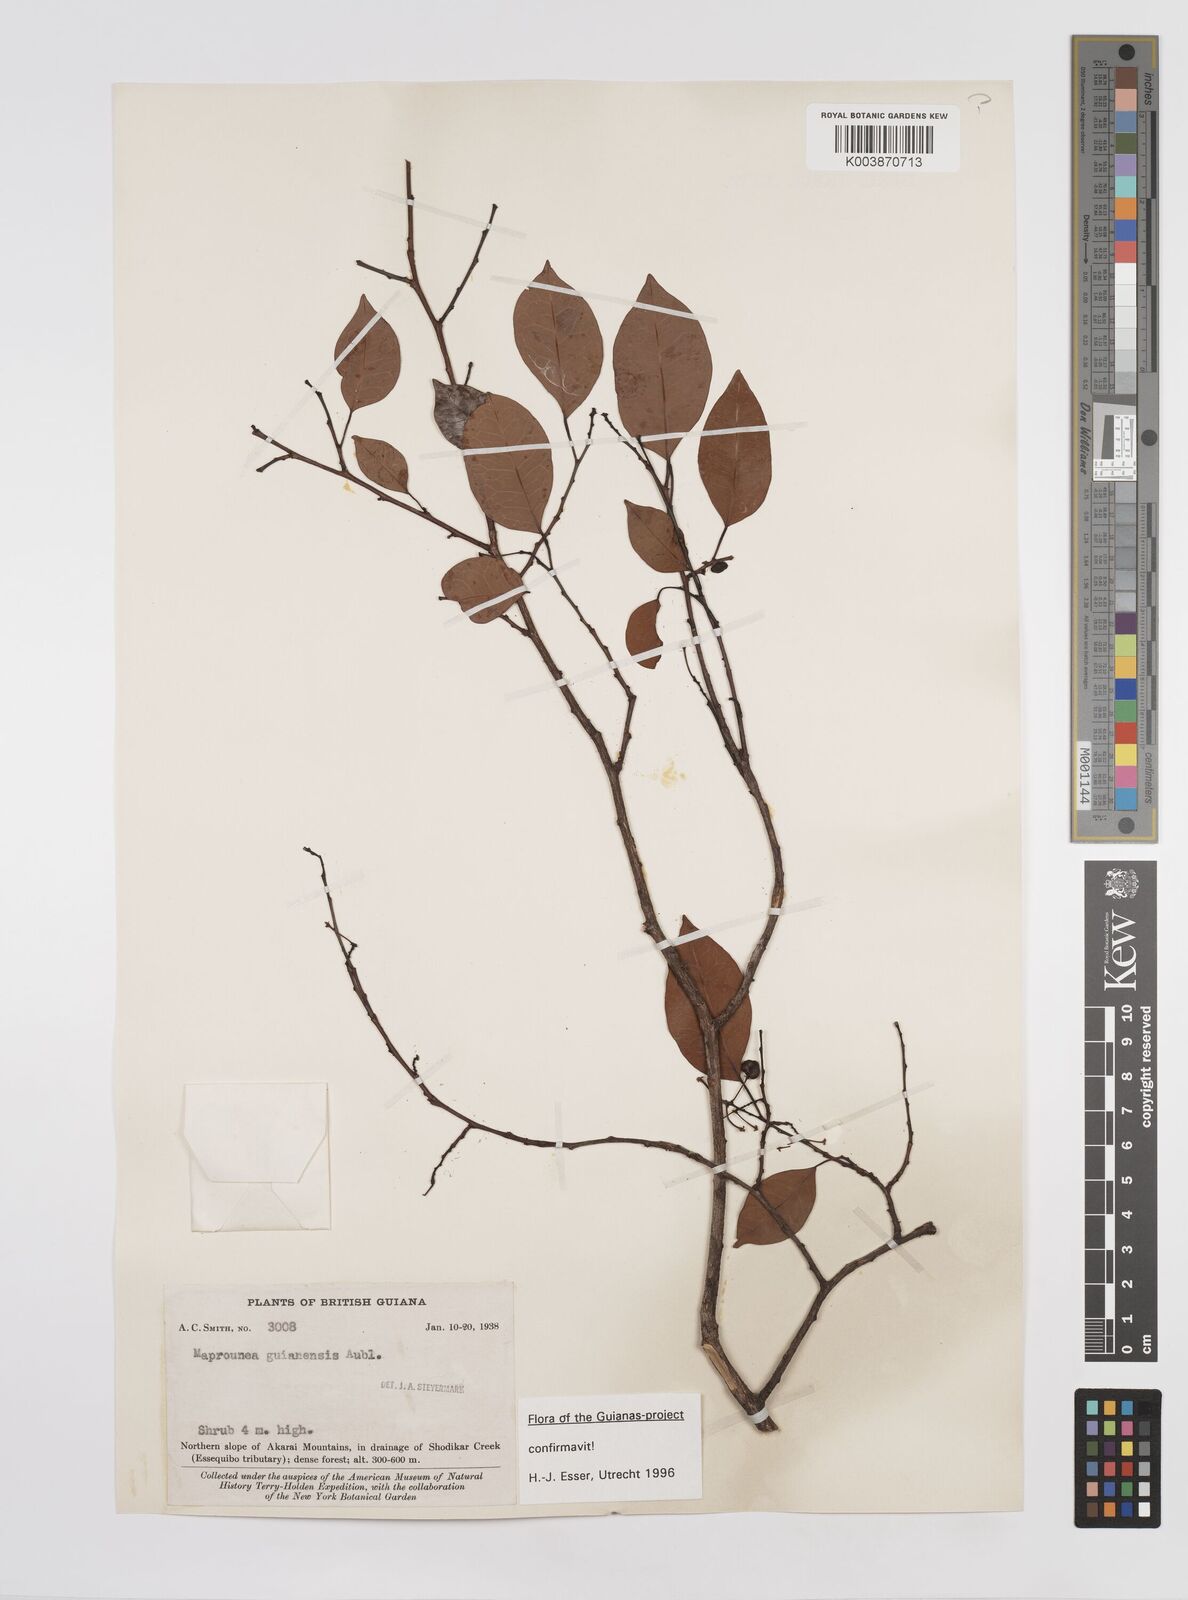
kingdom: Plantae
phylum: Tracheophyta
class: Magnoliopsida
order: Malpighiales
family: Euphorbiaceae
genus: Maprounea
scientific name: Maprounea guianensis
